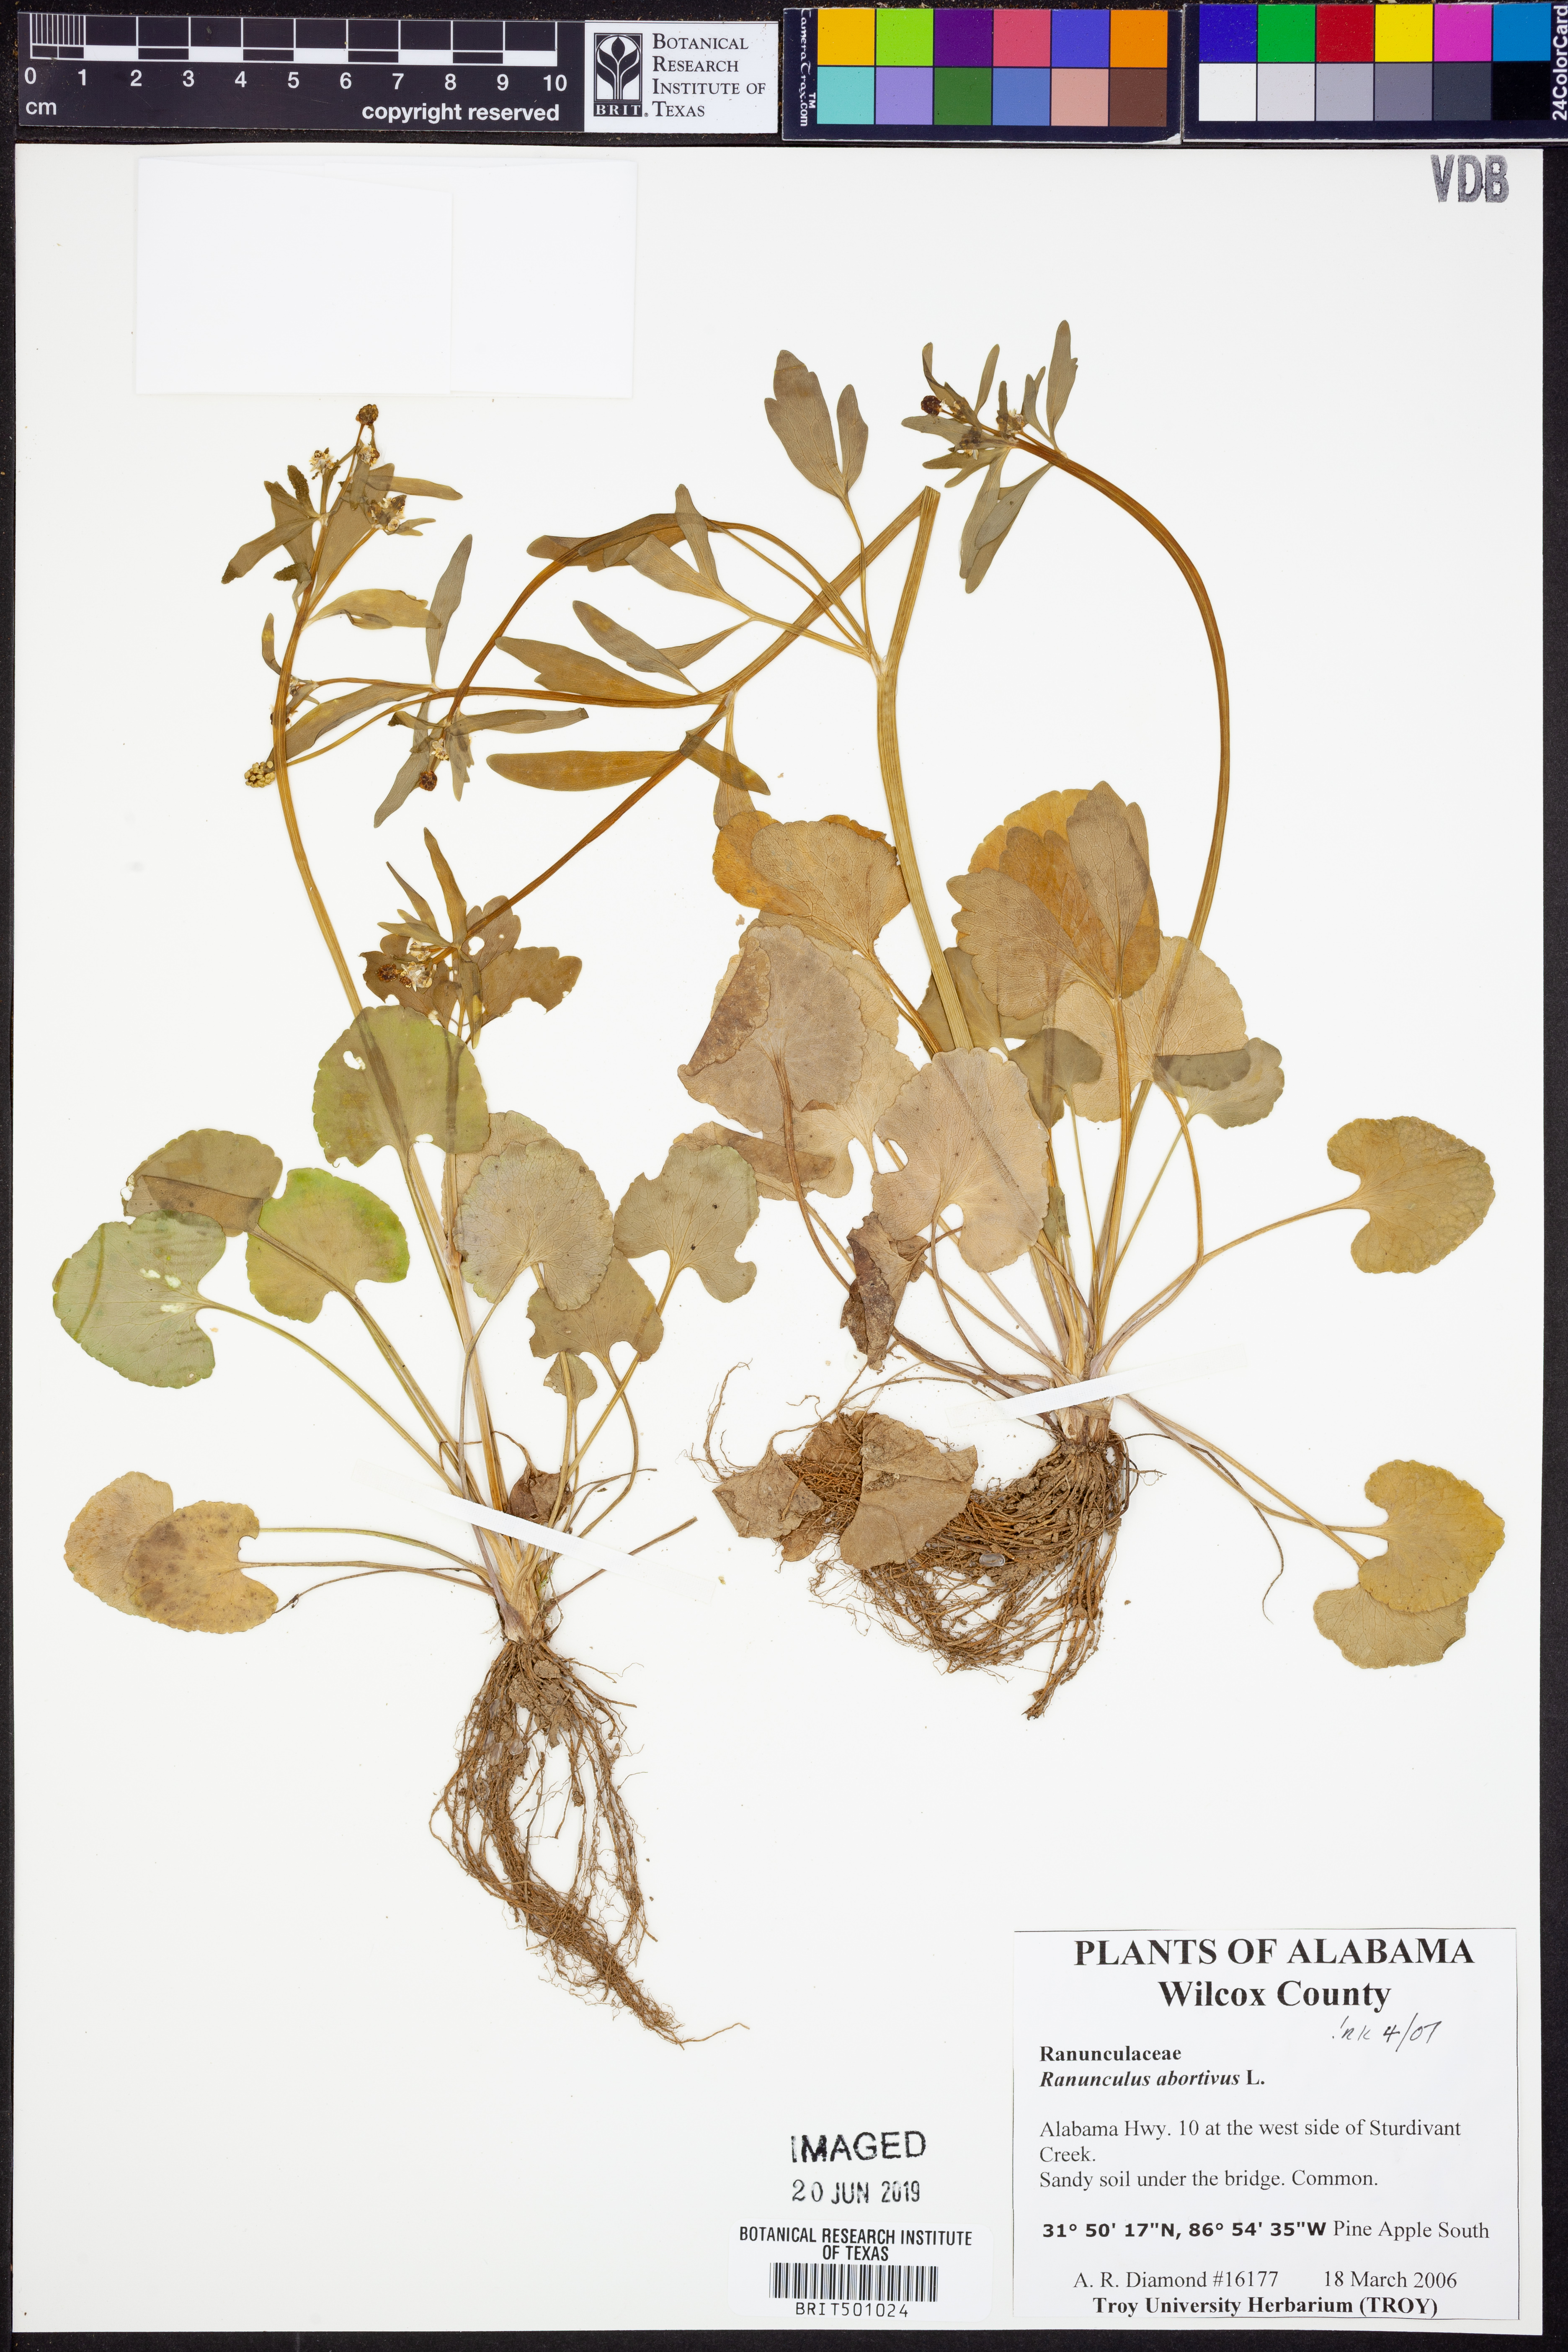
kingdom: Plantae
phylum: Tracheophyta
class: Magnoliopsida
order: Ranunculales
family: Ranunculaceae
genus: Ranunculus
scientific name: Ranunculus abortivus
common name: Early wood buttercup
